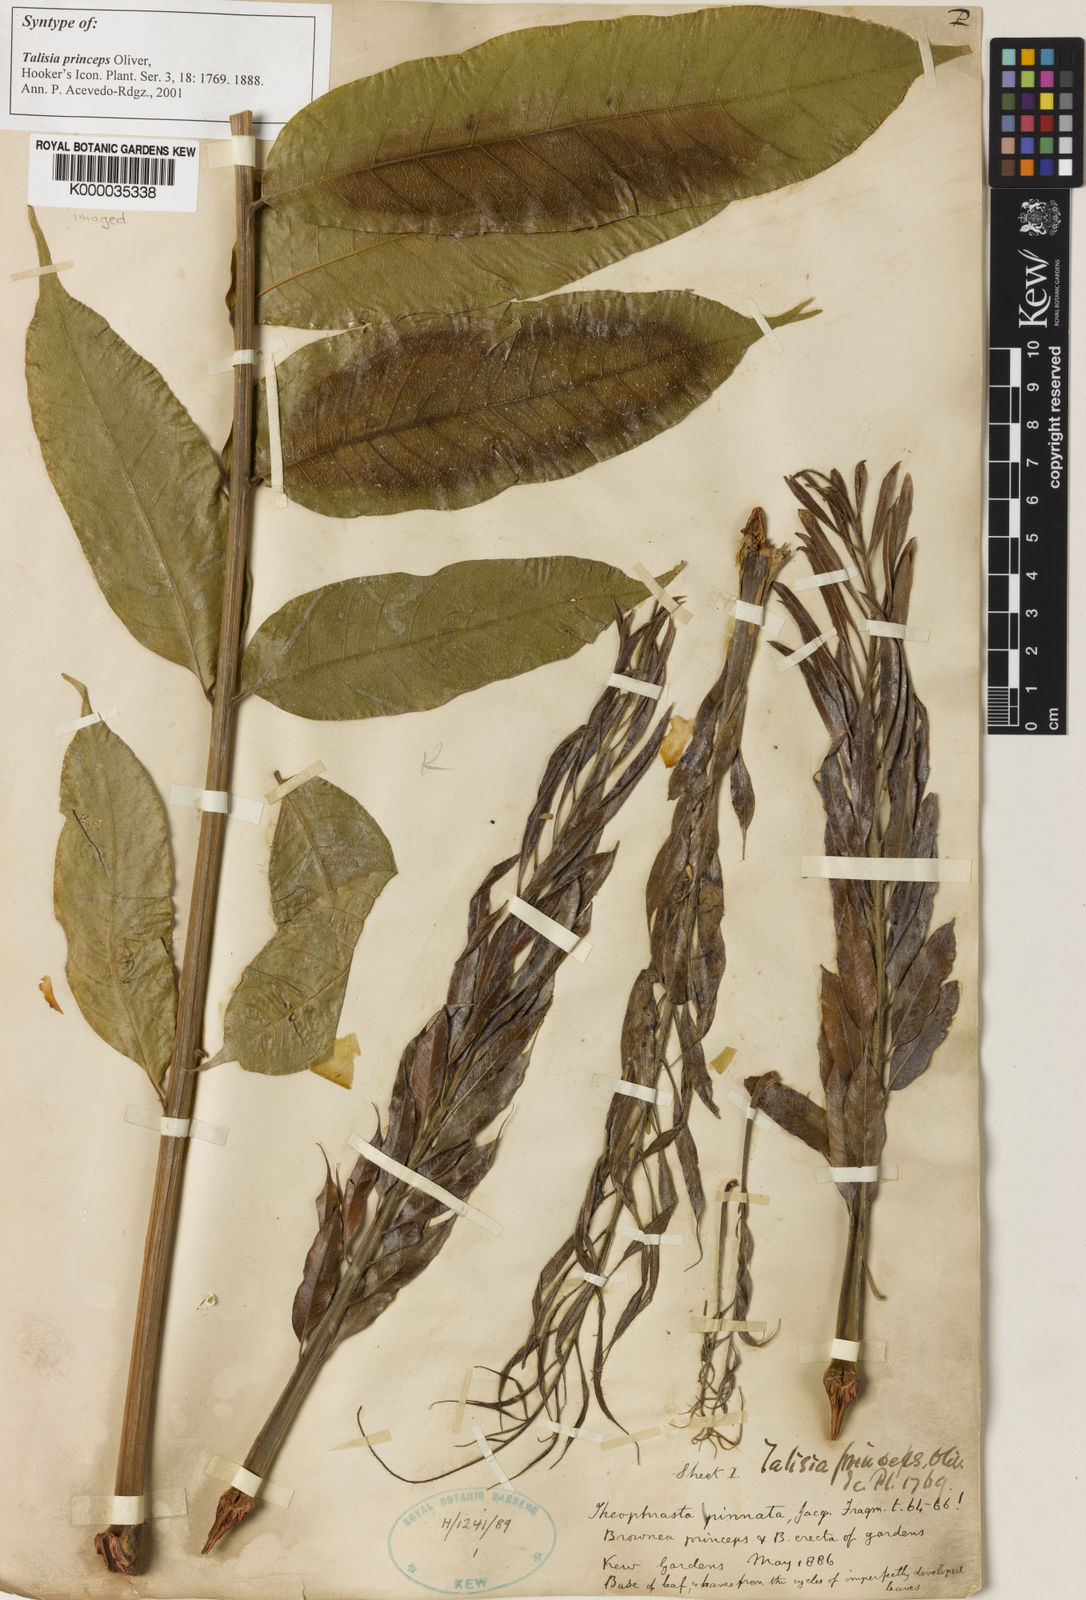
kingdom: Plantae
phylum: Tracheophyta
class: Magnoliopsida
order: Sapindales
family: Sapindaceae
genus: Talisia
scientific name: Talisia princeps
